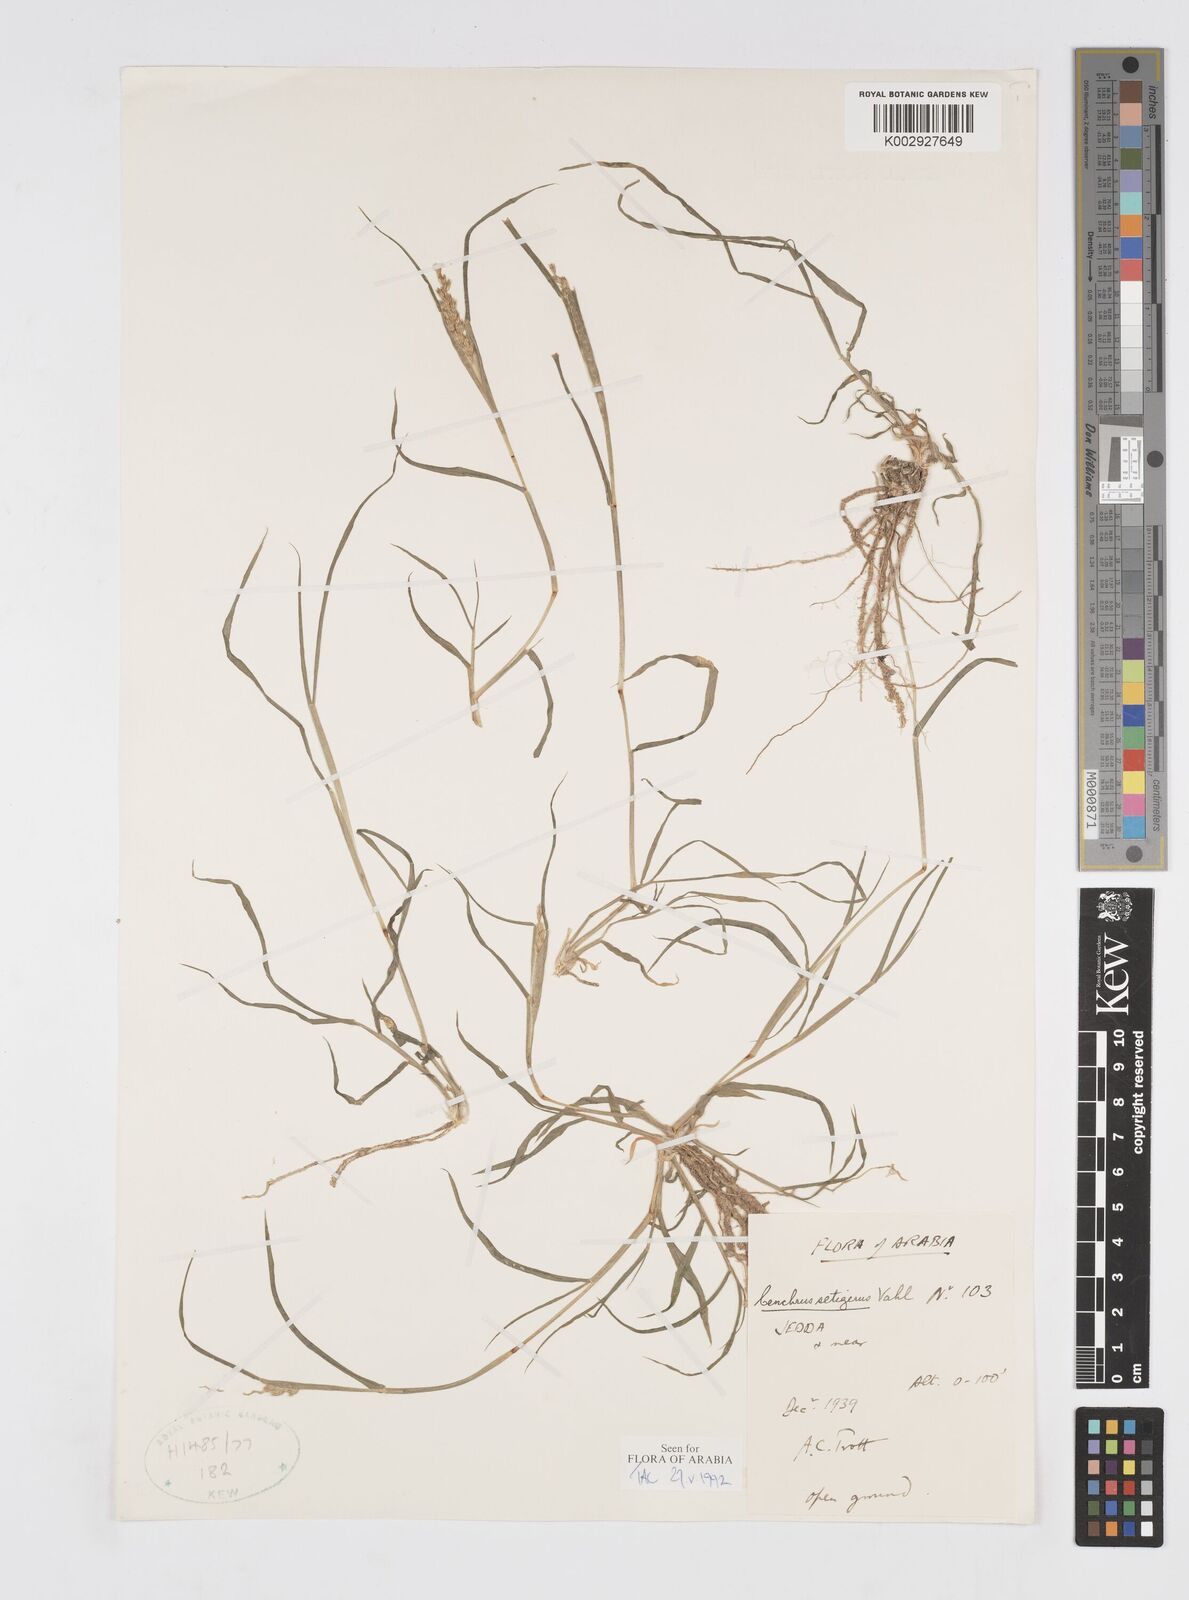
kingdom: Plantae
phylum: Tracheophyta
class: Liliopsida
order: Poales
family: Poaceae
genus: Cenchrus
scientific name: Cenchrus setigerus
